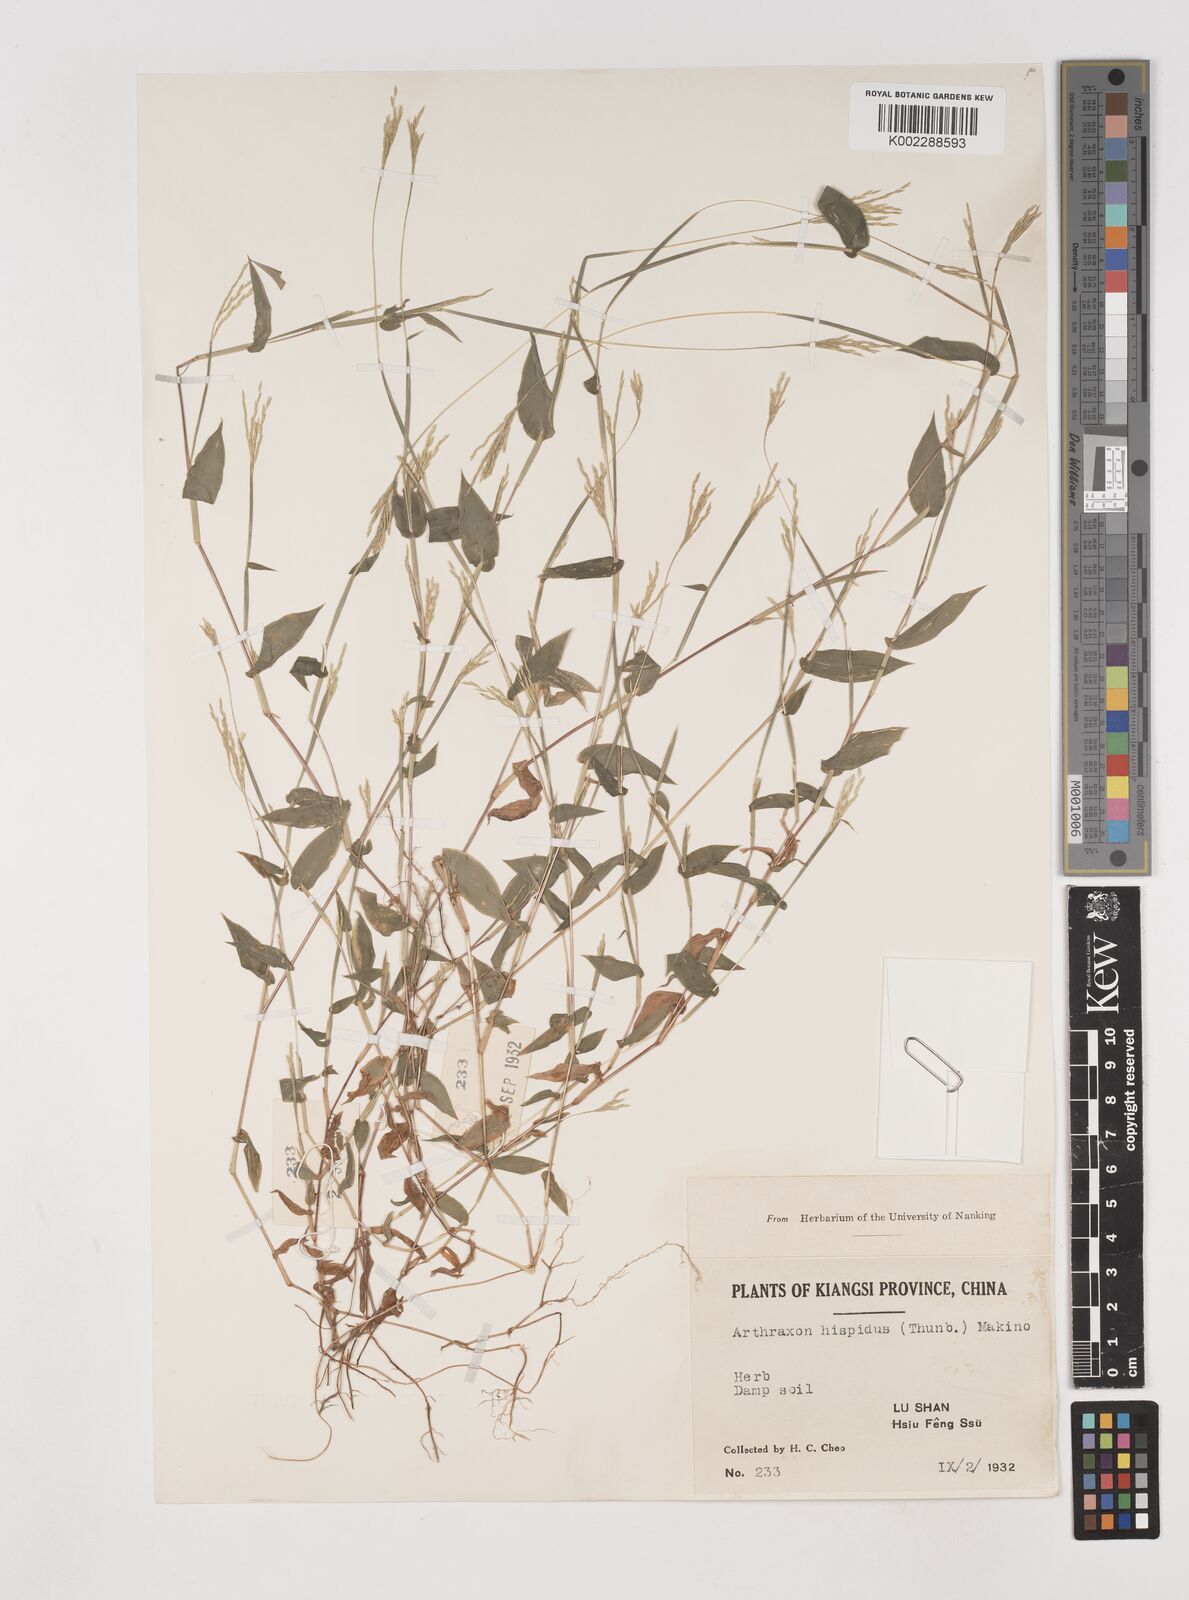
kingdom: Plantae
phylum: Tracheophyta
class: Liliopsida
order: Poales
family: Poaceae
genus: Arthraxon
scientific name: Arthraxon hispidus
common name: Small carpgrass
